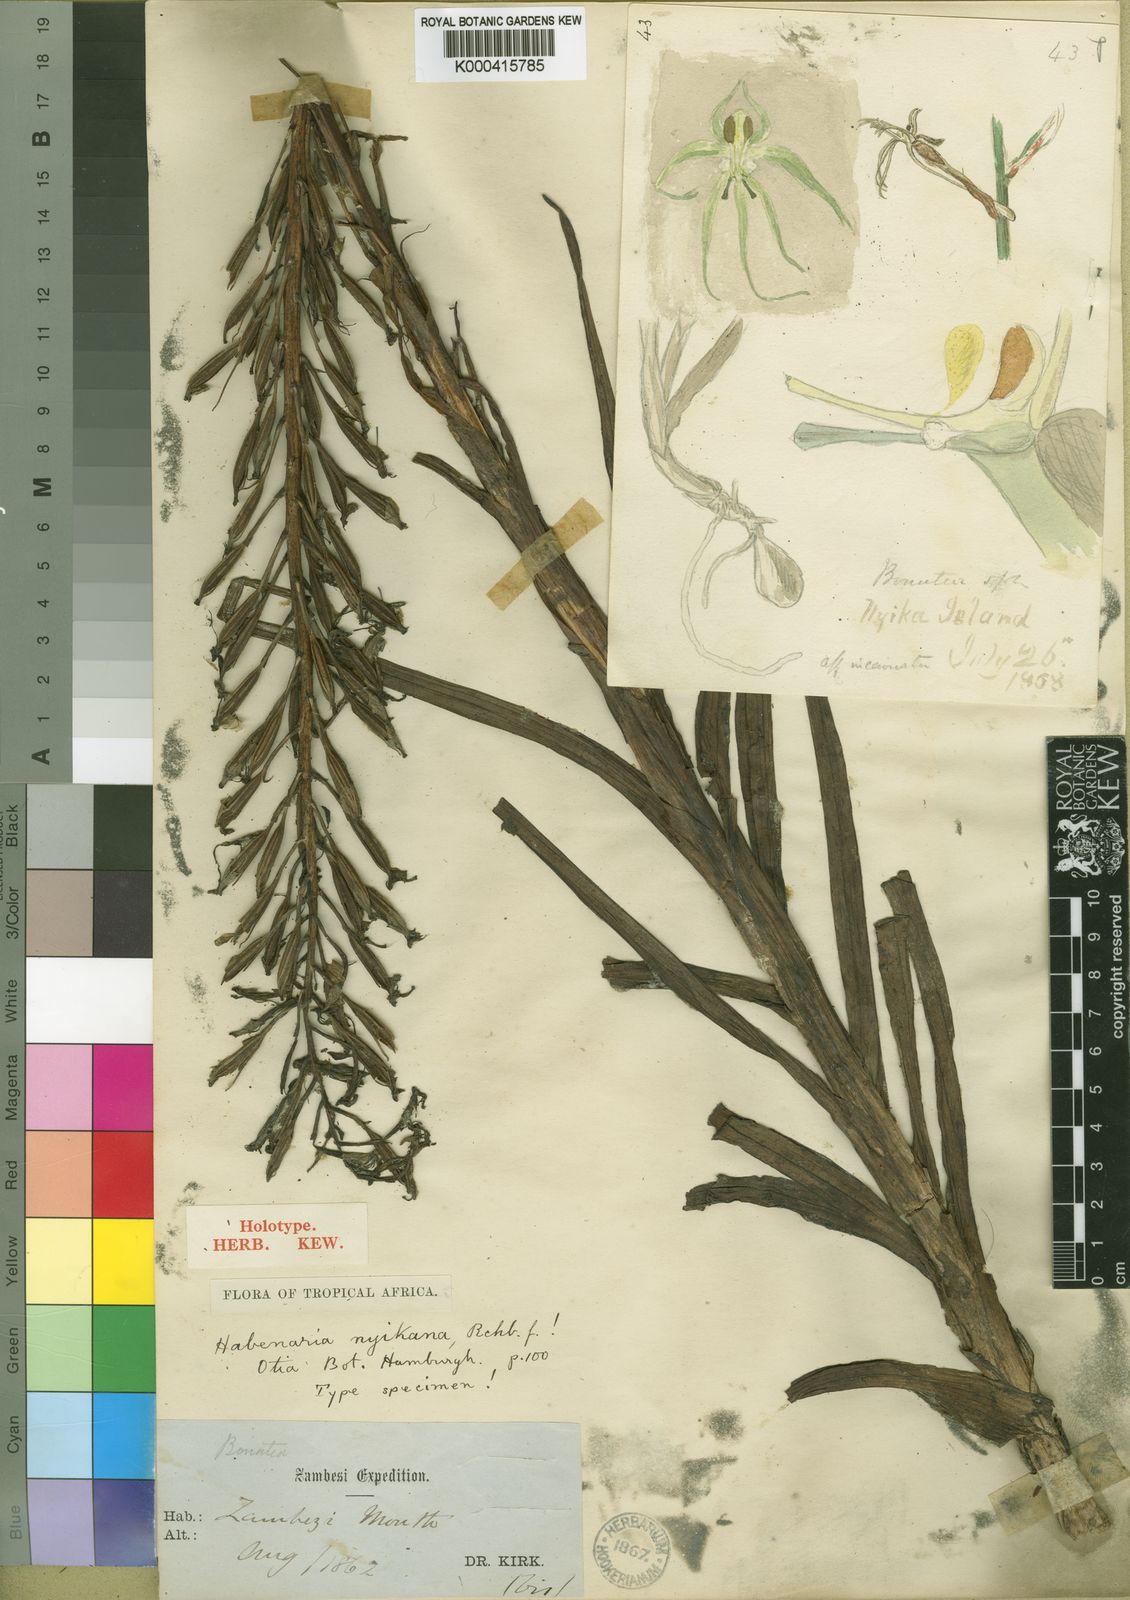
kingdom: Plantae
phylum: Tracheophyta
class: Liliopsida
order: Asparagales
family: Orchidaceae
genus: Habenaria
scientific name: Habenaria nyikana
